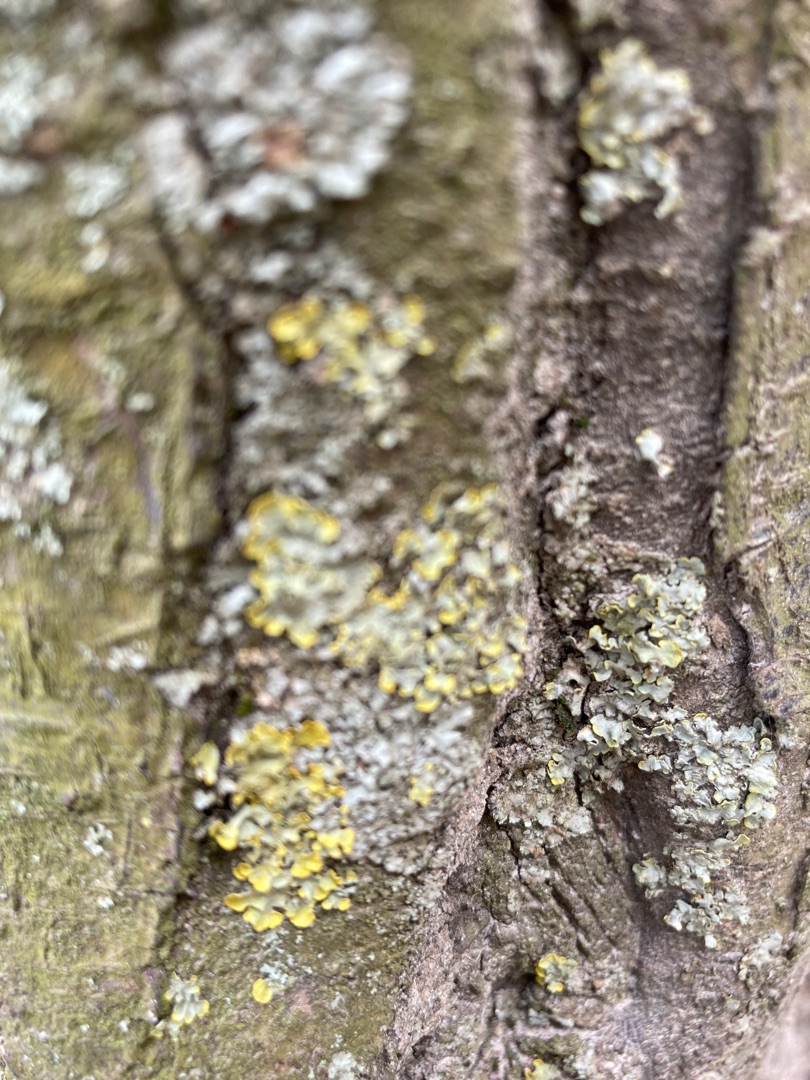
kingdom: Fungi
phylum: Ascomycota
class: Lecanoromycetes
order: Teloschistales
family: Teloschistaceae
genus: Xanthoria
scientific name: Xanthoria parietina
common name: Almindelig væggelav
